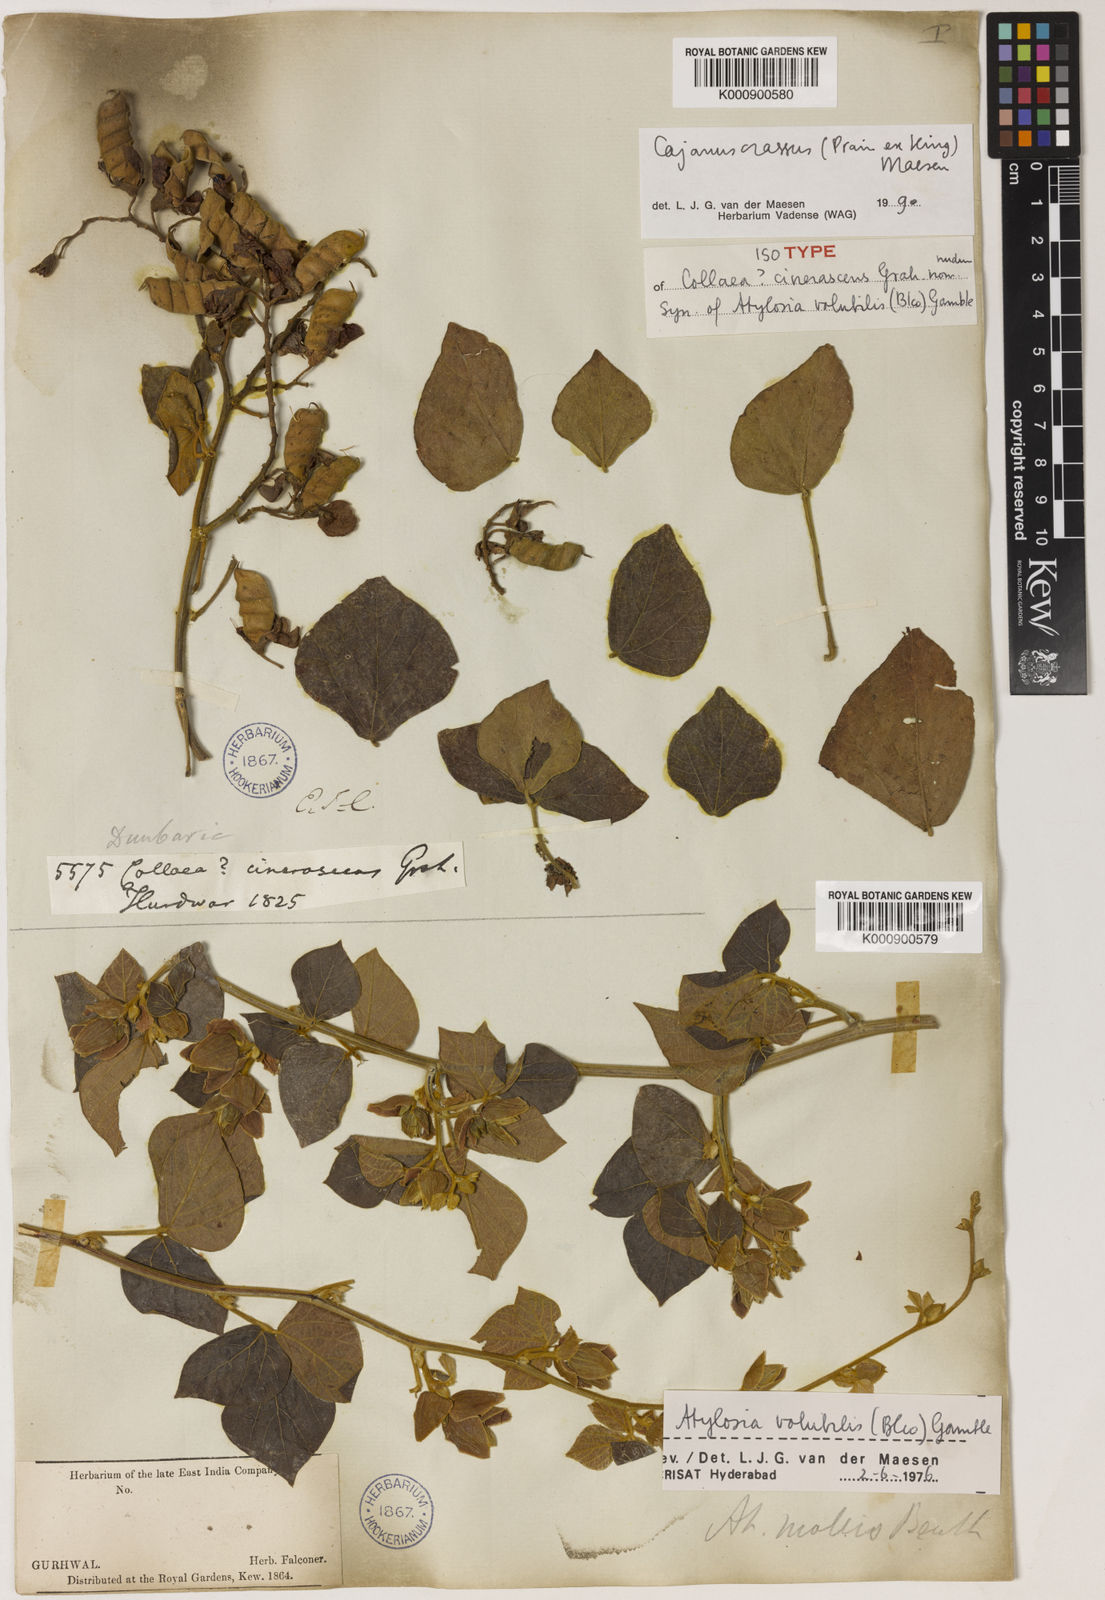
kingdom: Plantae
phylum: Tracheophyta
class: Magnoliopsida
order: Fabales
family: Fabaceae
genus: Cajanus
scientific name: Cajanus crassus
